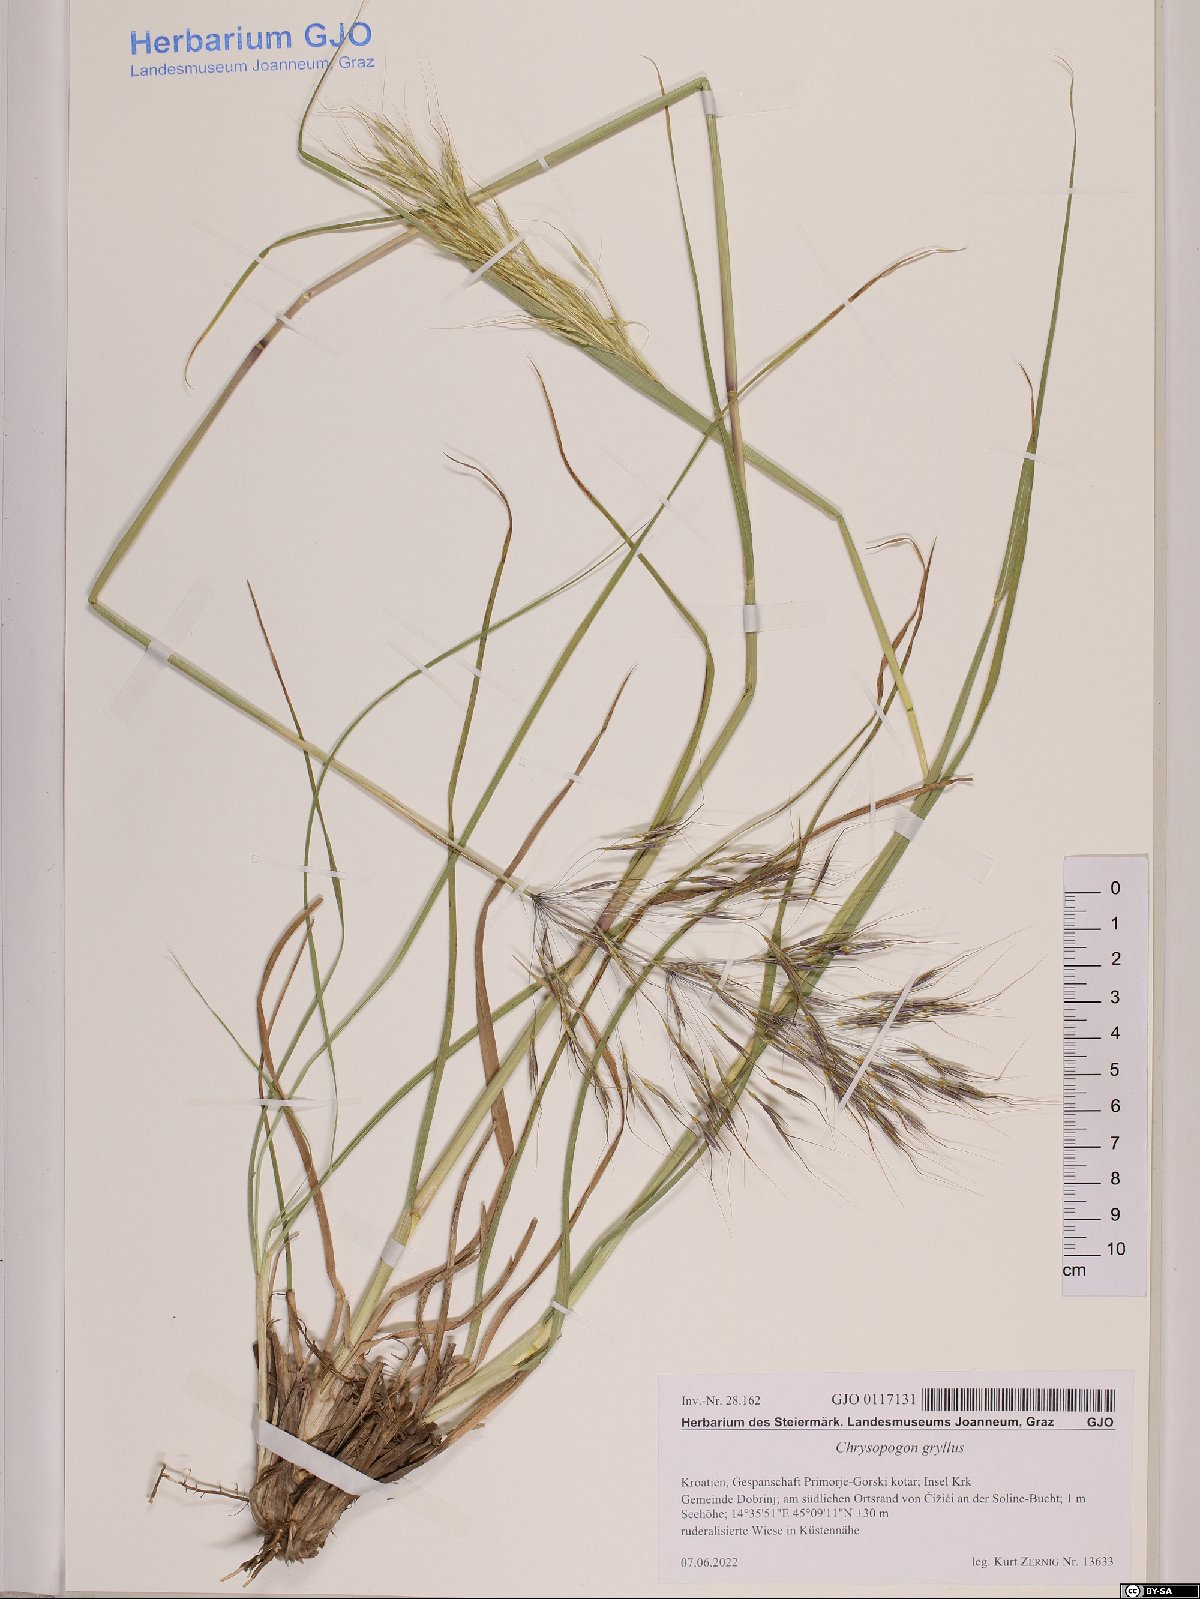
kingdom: Plantae
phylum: Tracheophyta
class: Liliopsida
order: Poales
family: Poaceae
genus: Chrysopogon
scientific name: Chrysopogon gryllus
